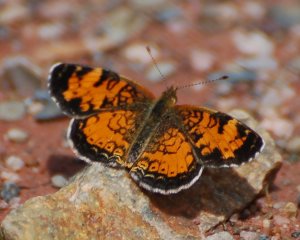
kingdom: Animalia
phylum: Arthropoda
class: Insecta
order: Lepidoptera
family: Nymphalidae
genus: Phyciodes
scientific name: Phyciodes tharos
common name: Northern Crescent
